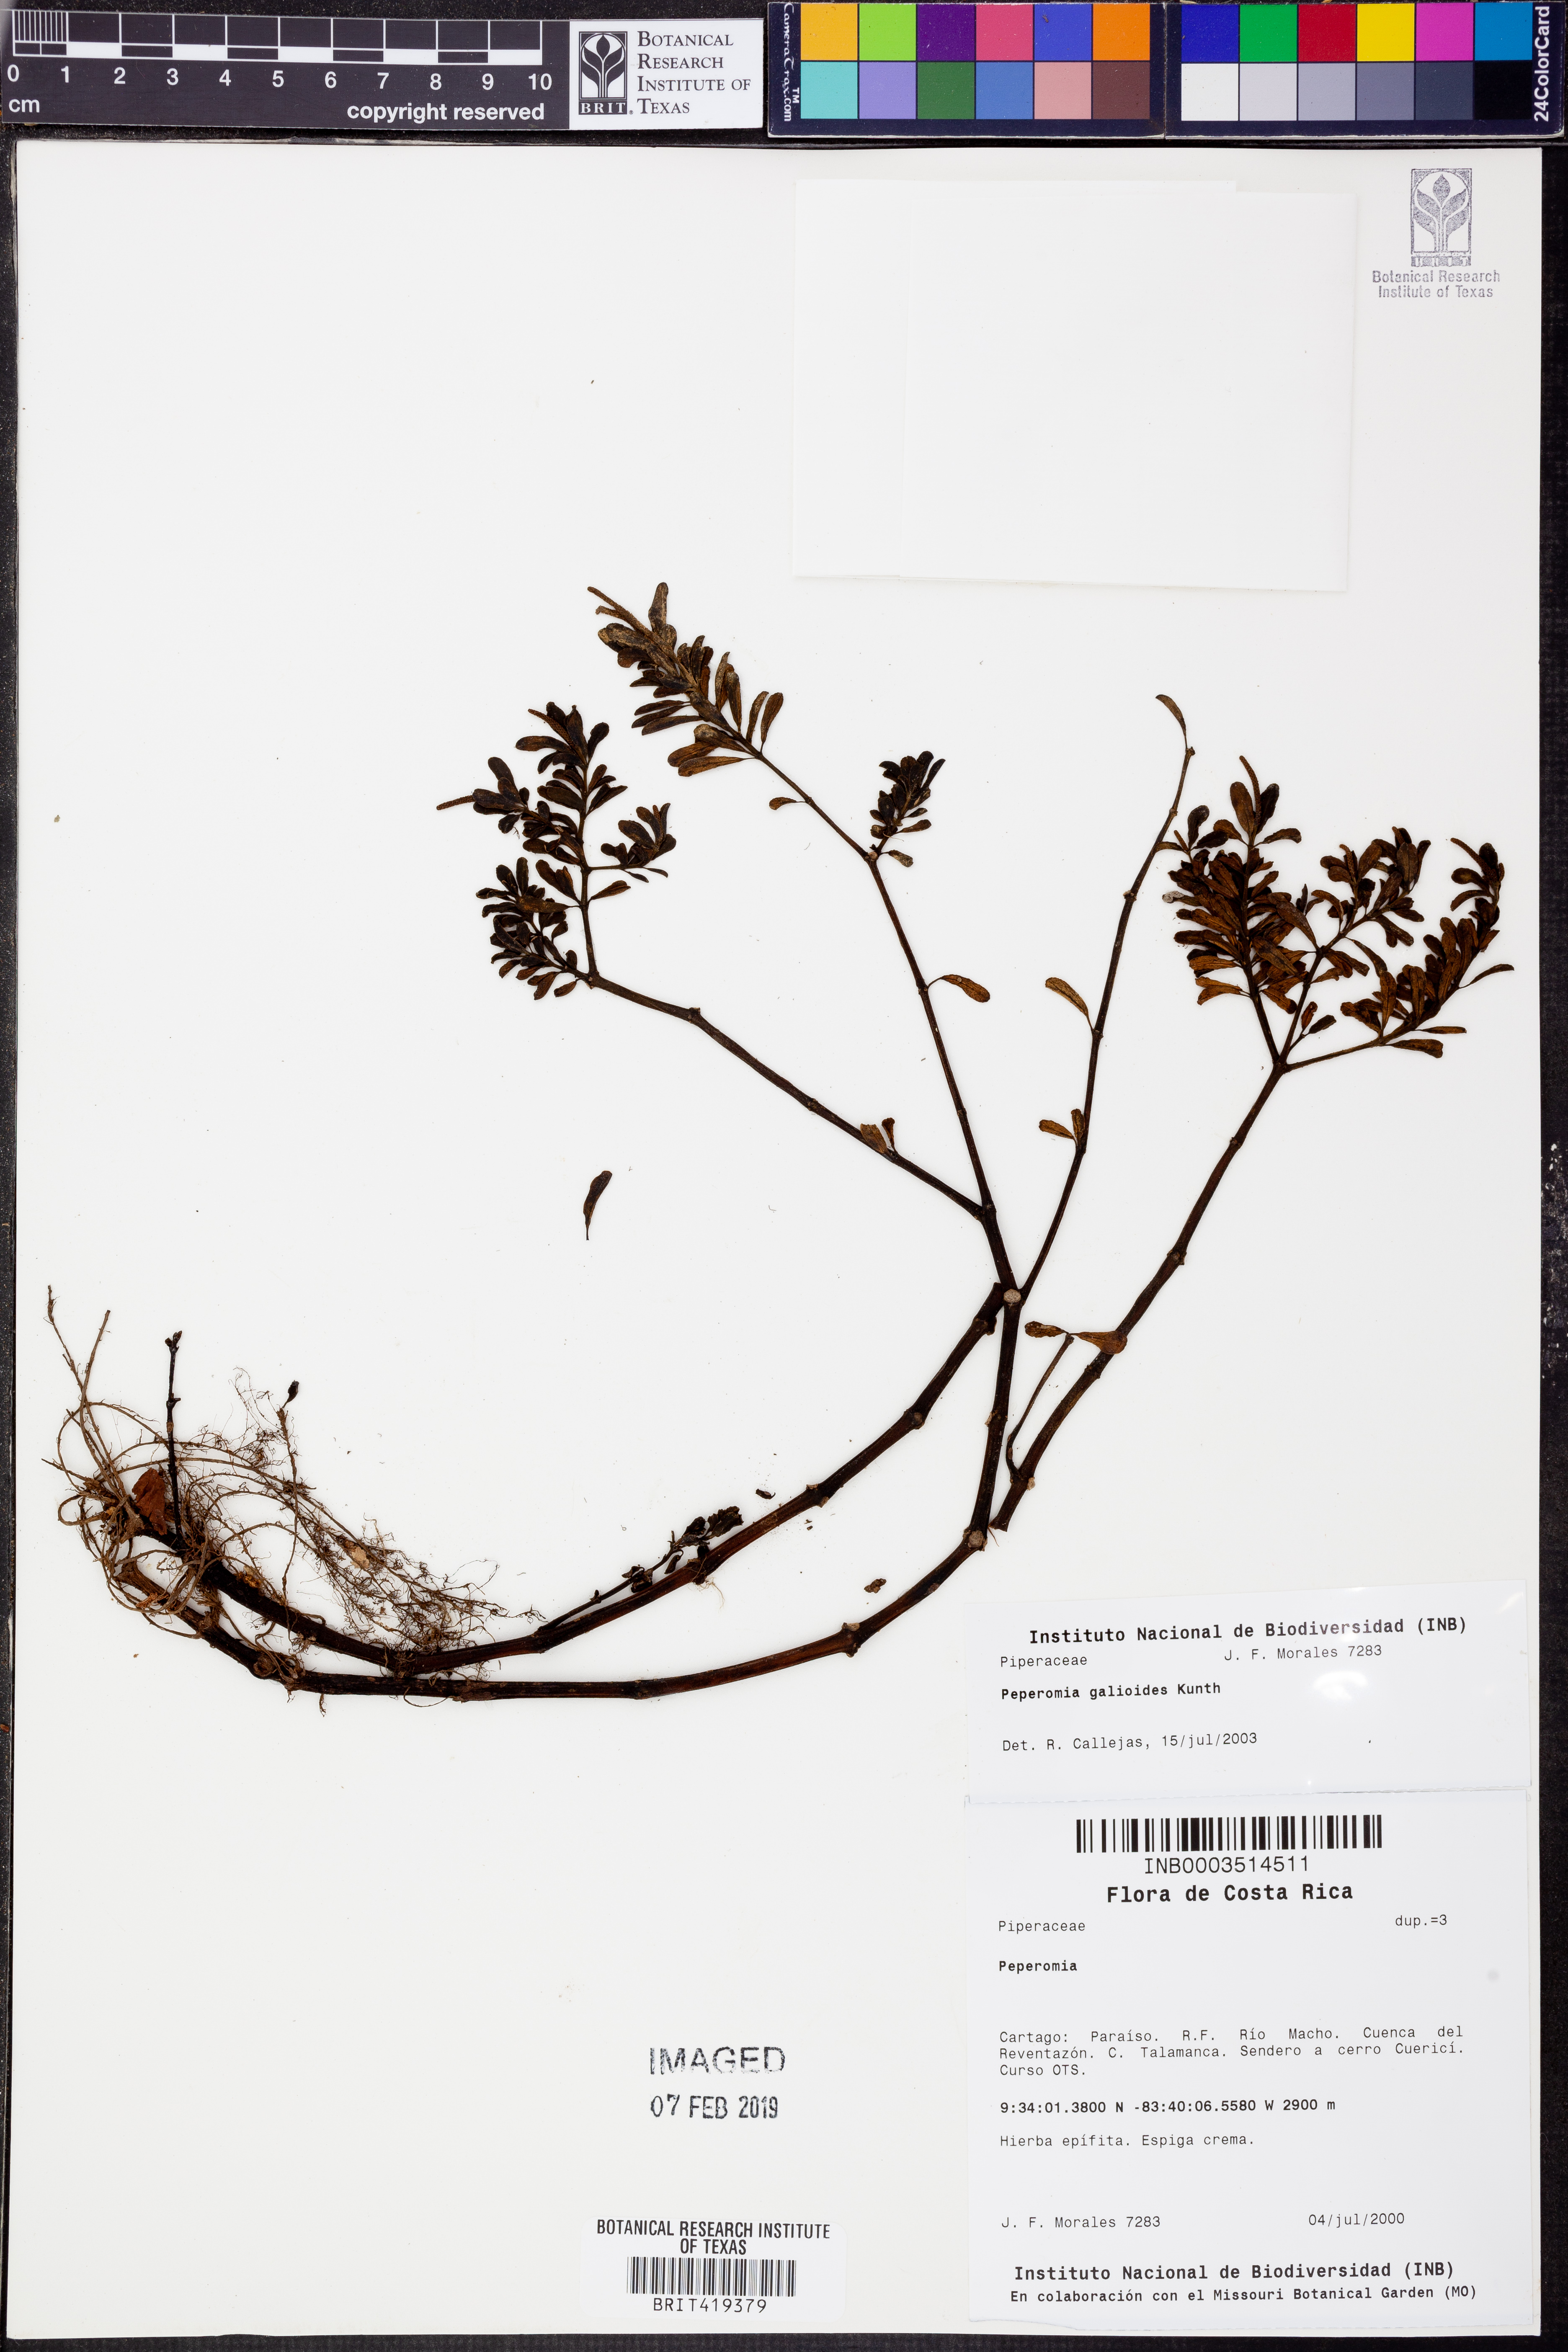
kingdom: Plantae
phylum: Tracheophyta
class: Magnoliopsida
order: Piperales
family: Piperaceae
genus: Peperomia
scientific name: Peperomia galioides
